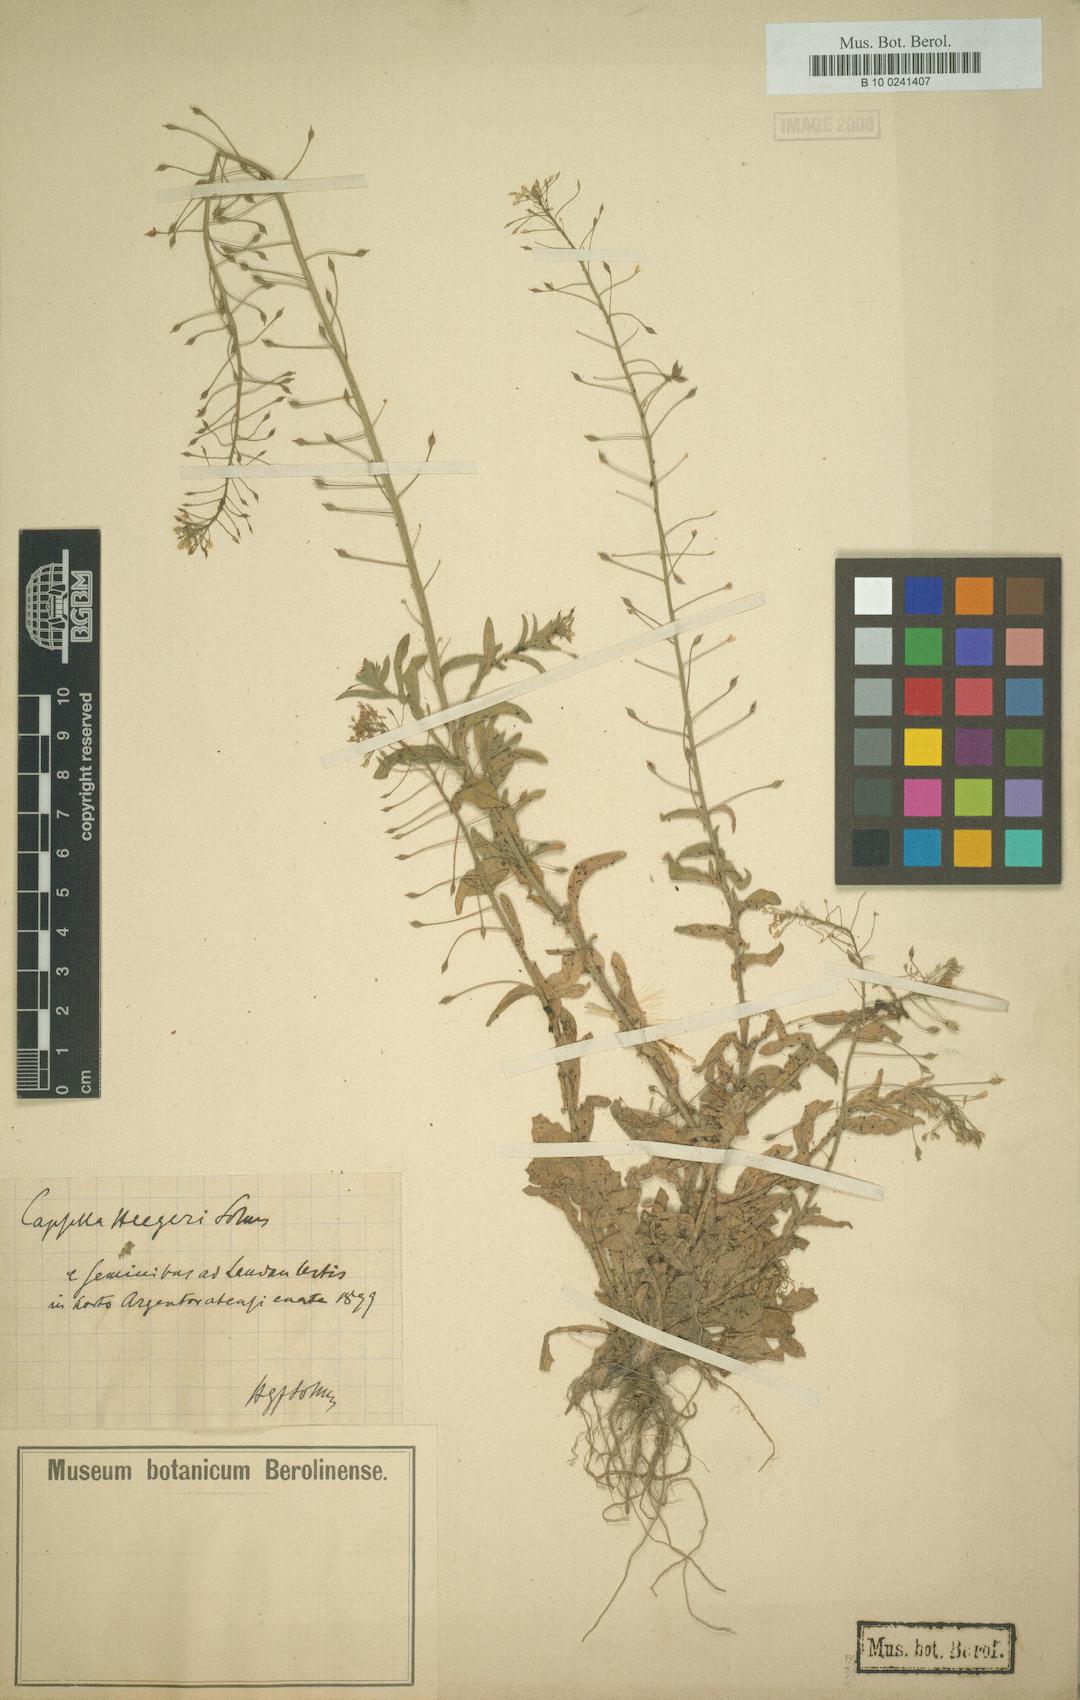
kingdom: Plantae
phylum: Tracheophyta
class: Magnoliopsida
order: Brassicales
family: Brassicaceae
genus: Capsella
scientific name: Capsella bursa-pastoris
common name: Shepherd's purse
